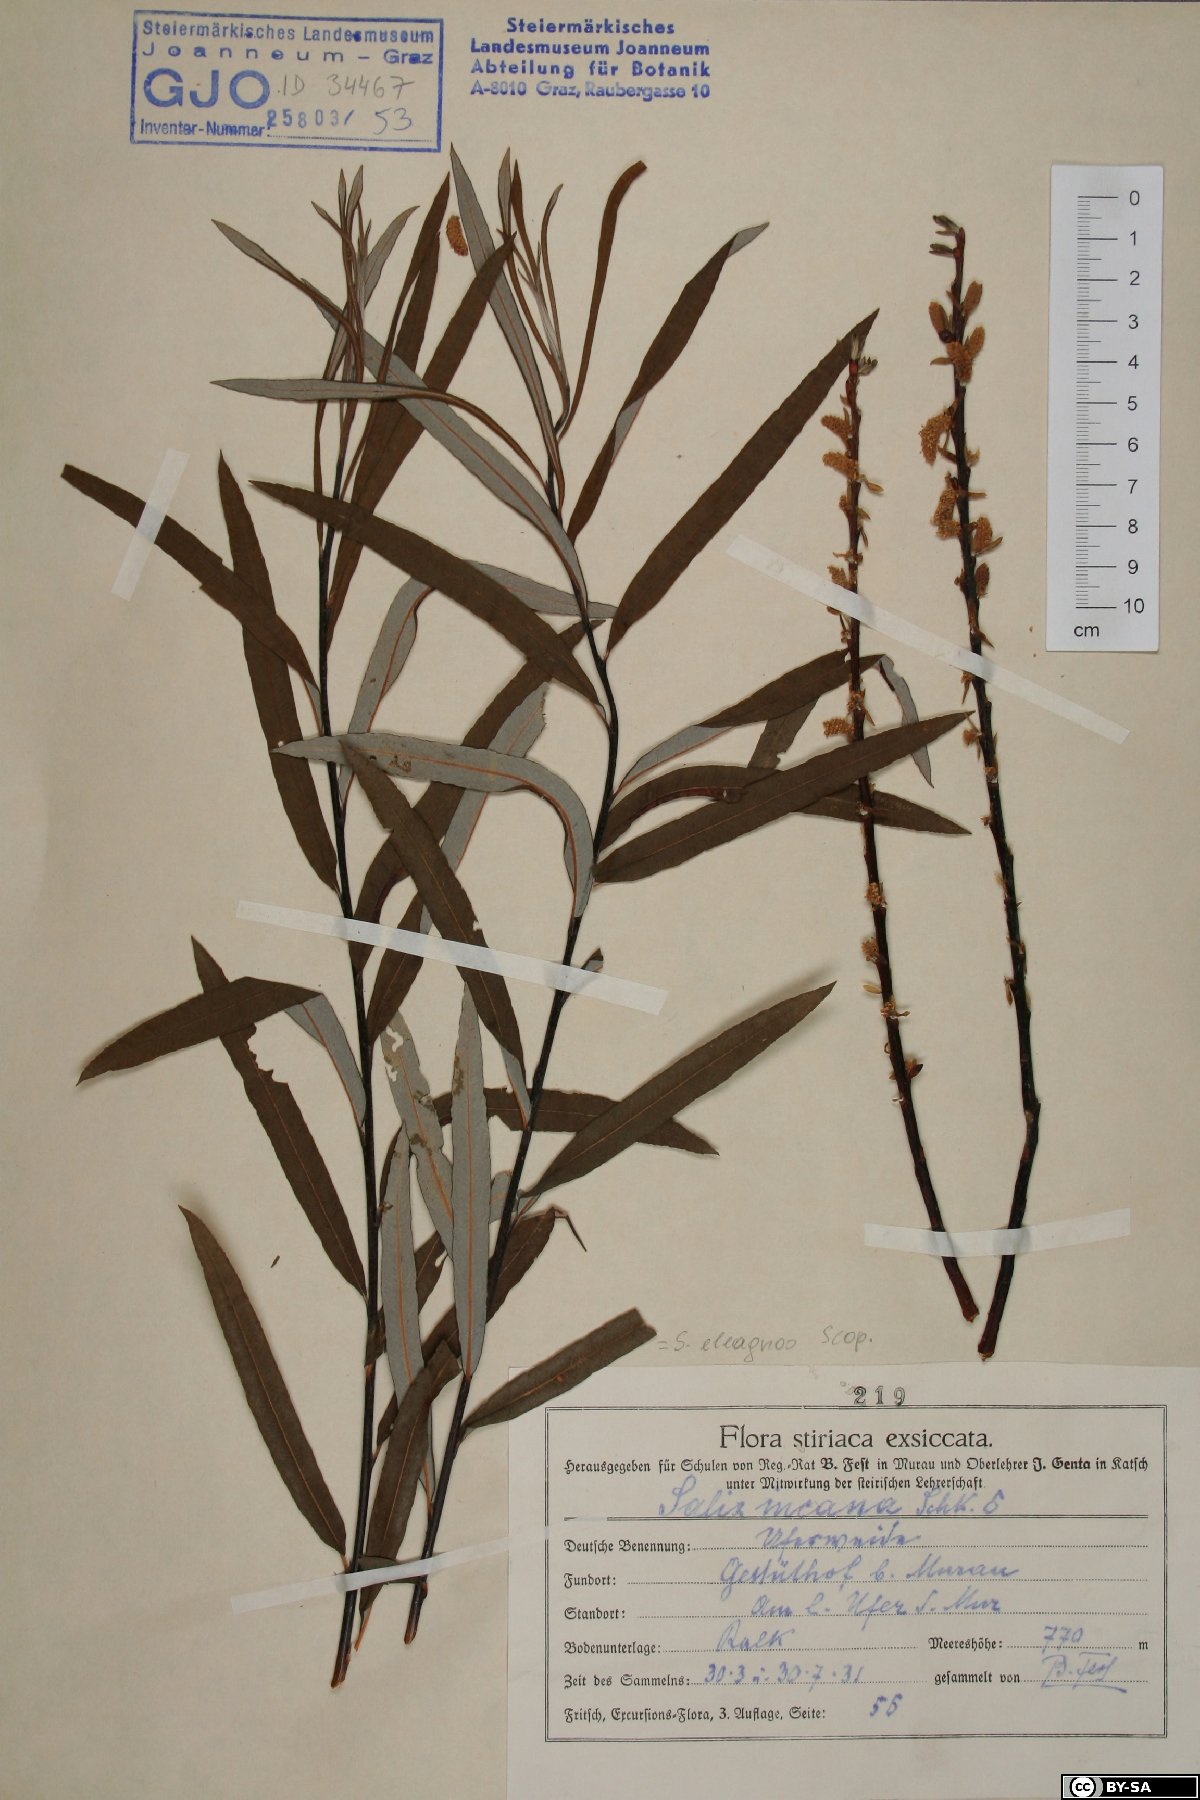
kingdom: Plantae
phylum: Tracheophyta
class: Magnoliopsida
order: Malpighiales
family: Salicaceae
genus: Salix
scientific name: Salix eleagnos
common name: Elaeagnus willow
